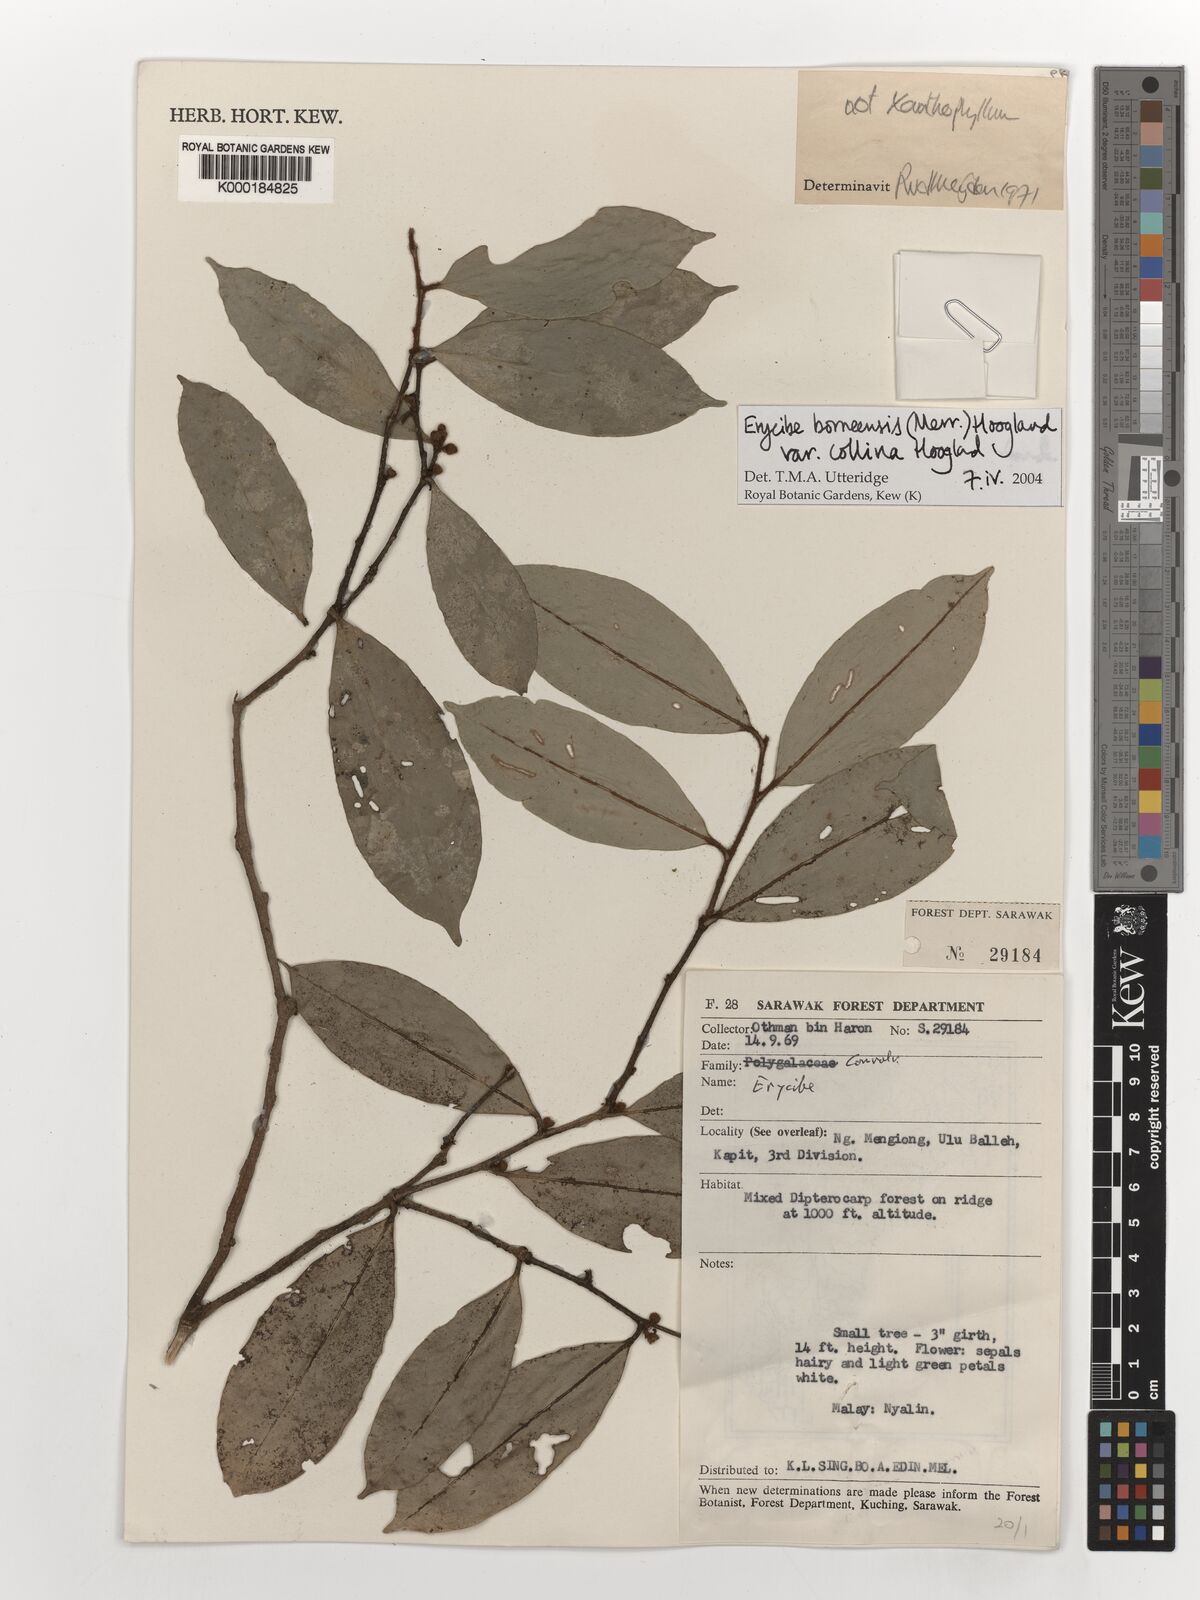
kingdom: Plantae
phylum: Tracheophyta
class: Magnoliopsida
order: Solanales
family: Convolvulaceae
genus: Erycibe
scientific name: Erycibe glomerata
